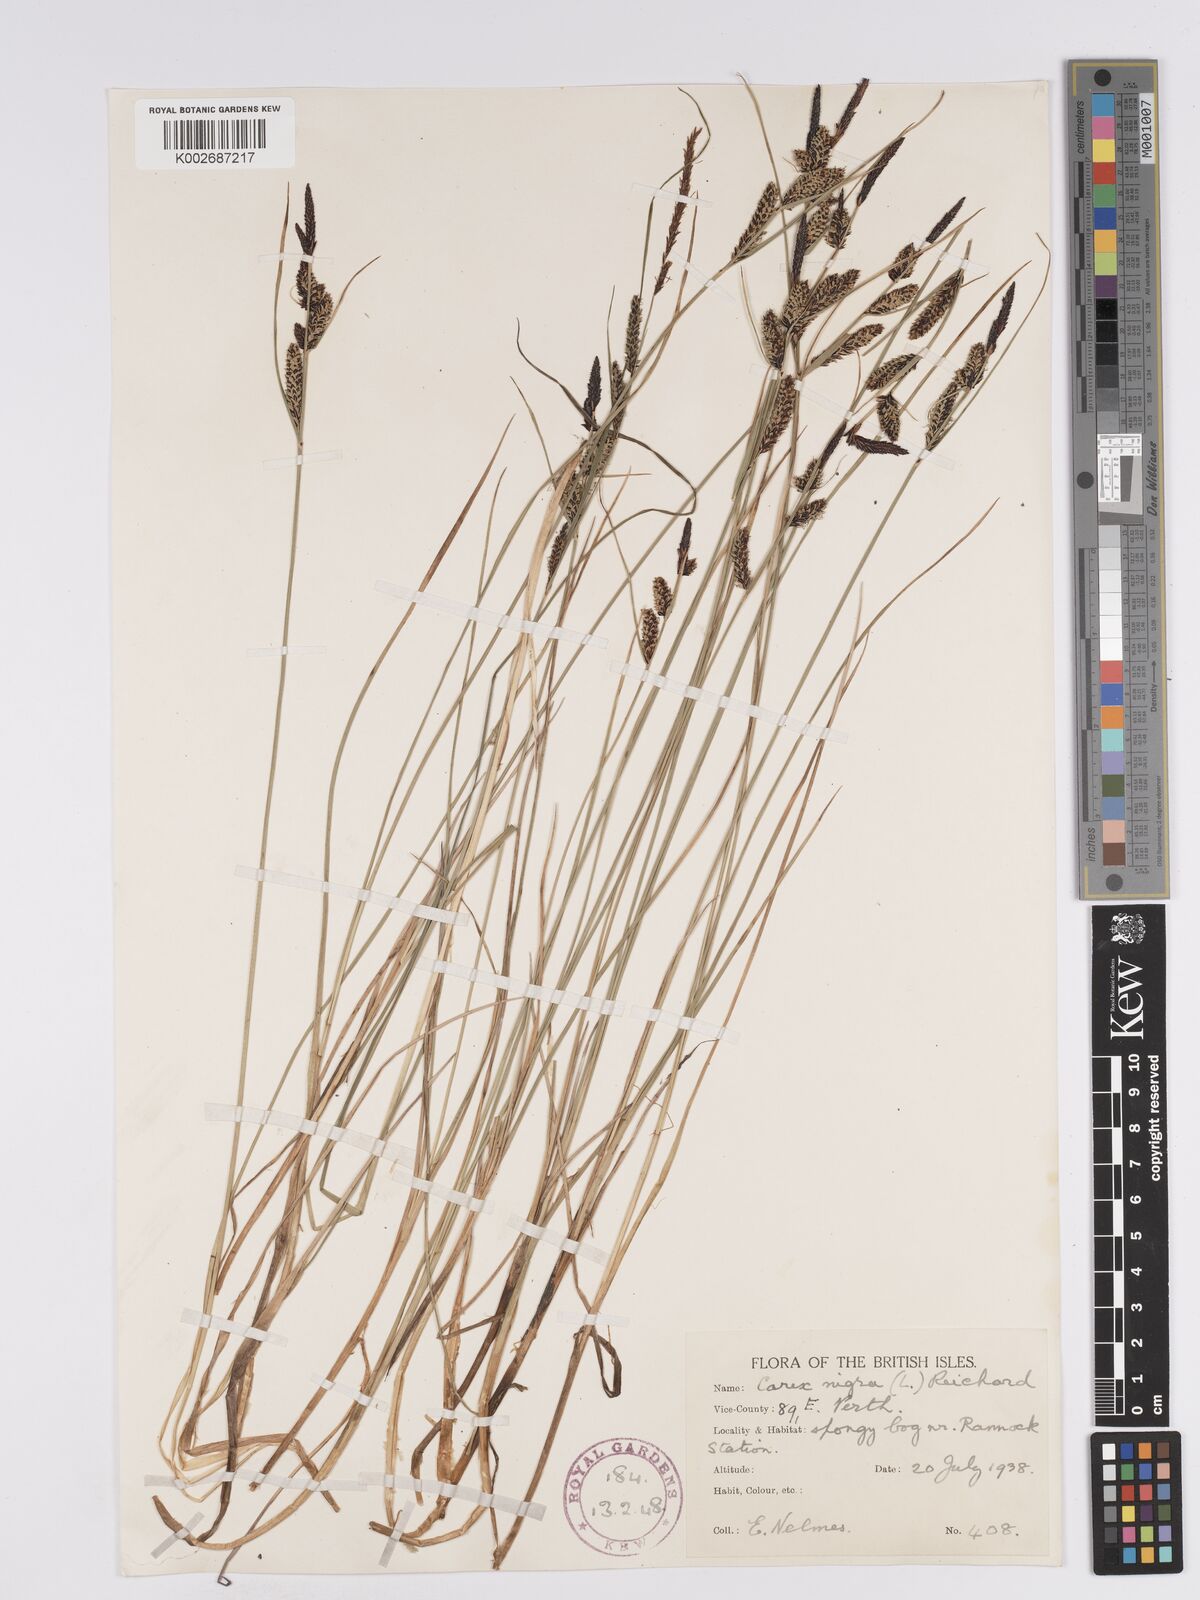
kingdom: Plantae
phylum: Tracheophyta
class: Liliopsida
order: Poales
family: Cyperaceae
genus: Carex
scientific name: Carex nigra
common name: Common sedge
